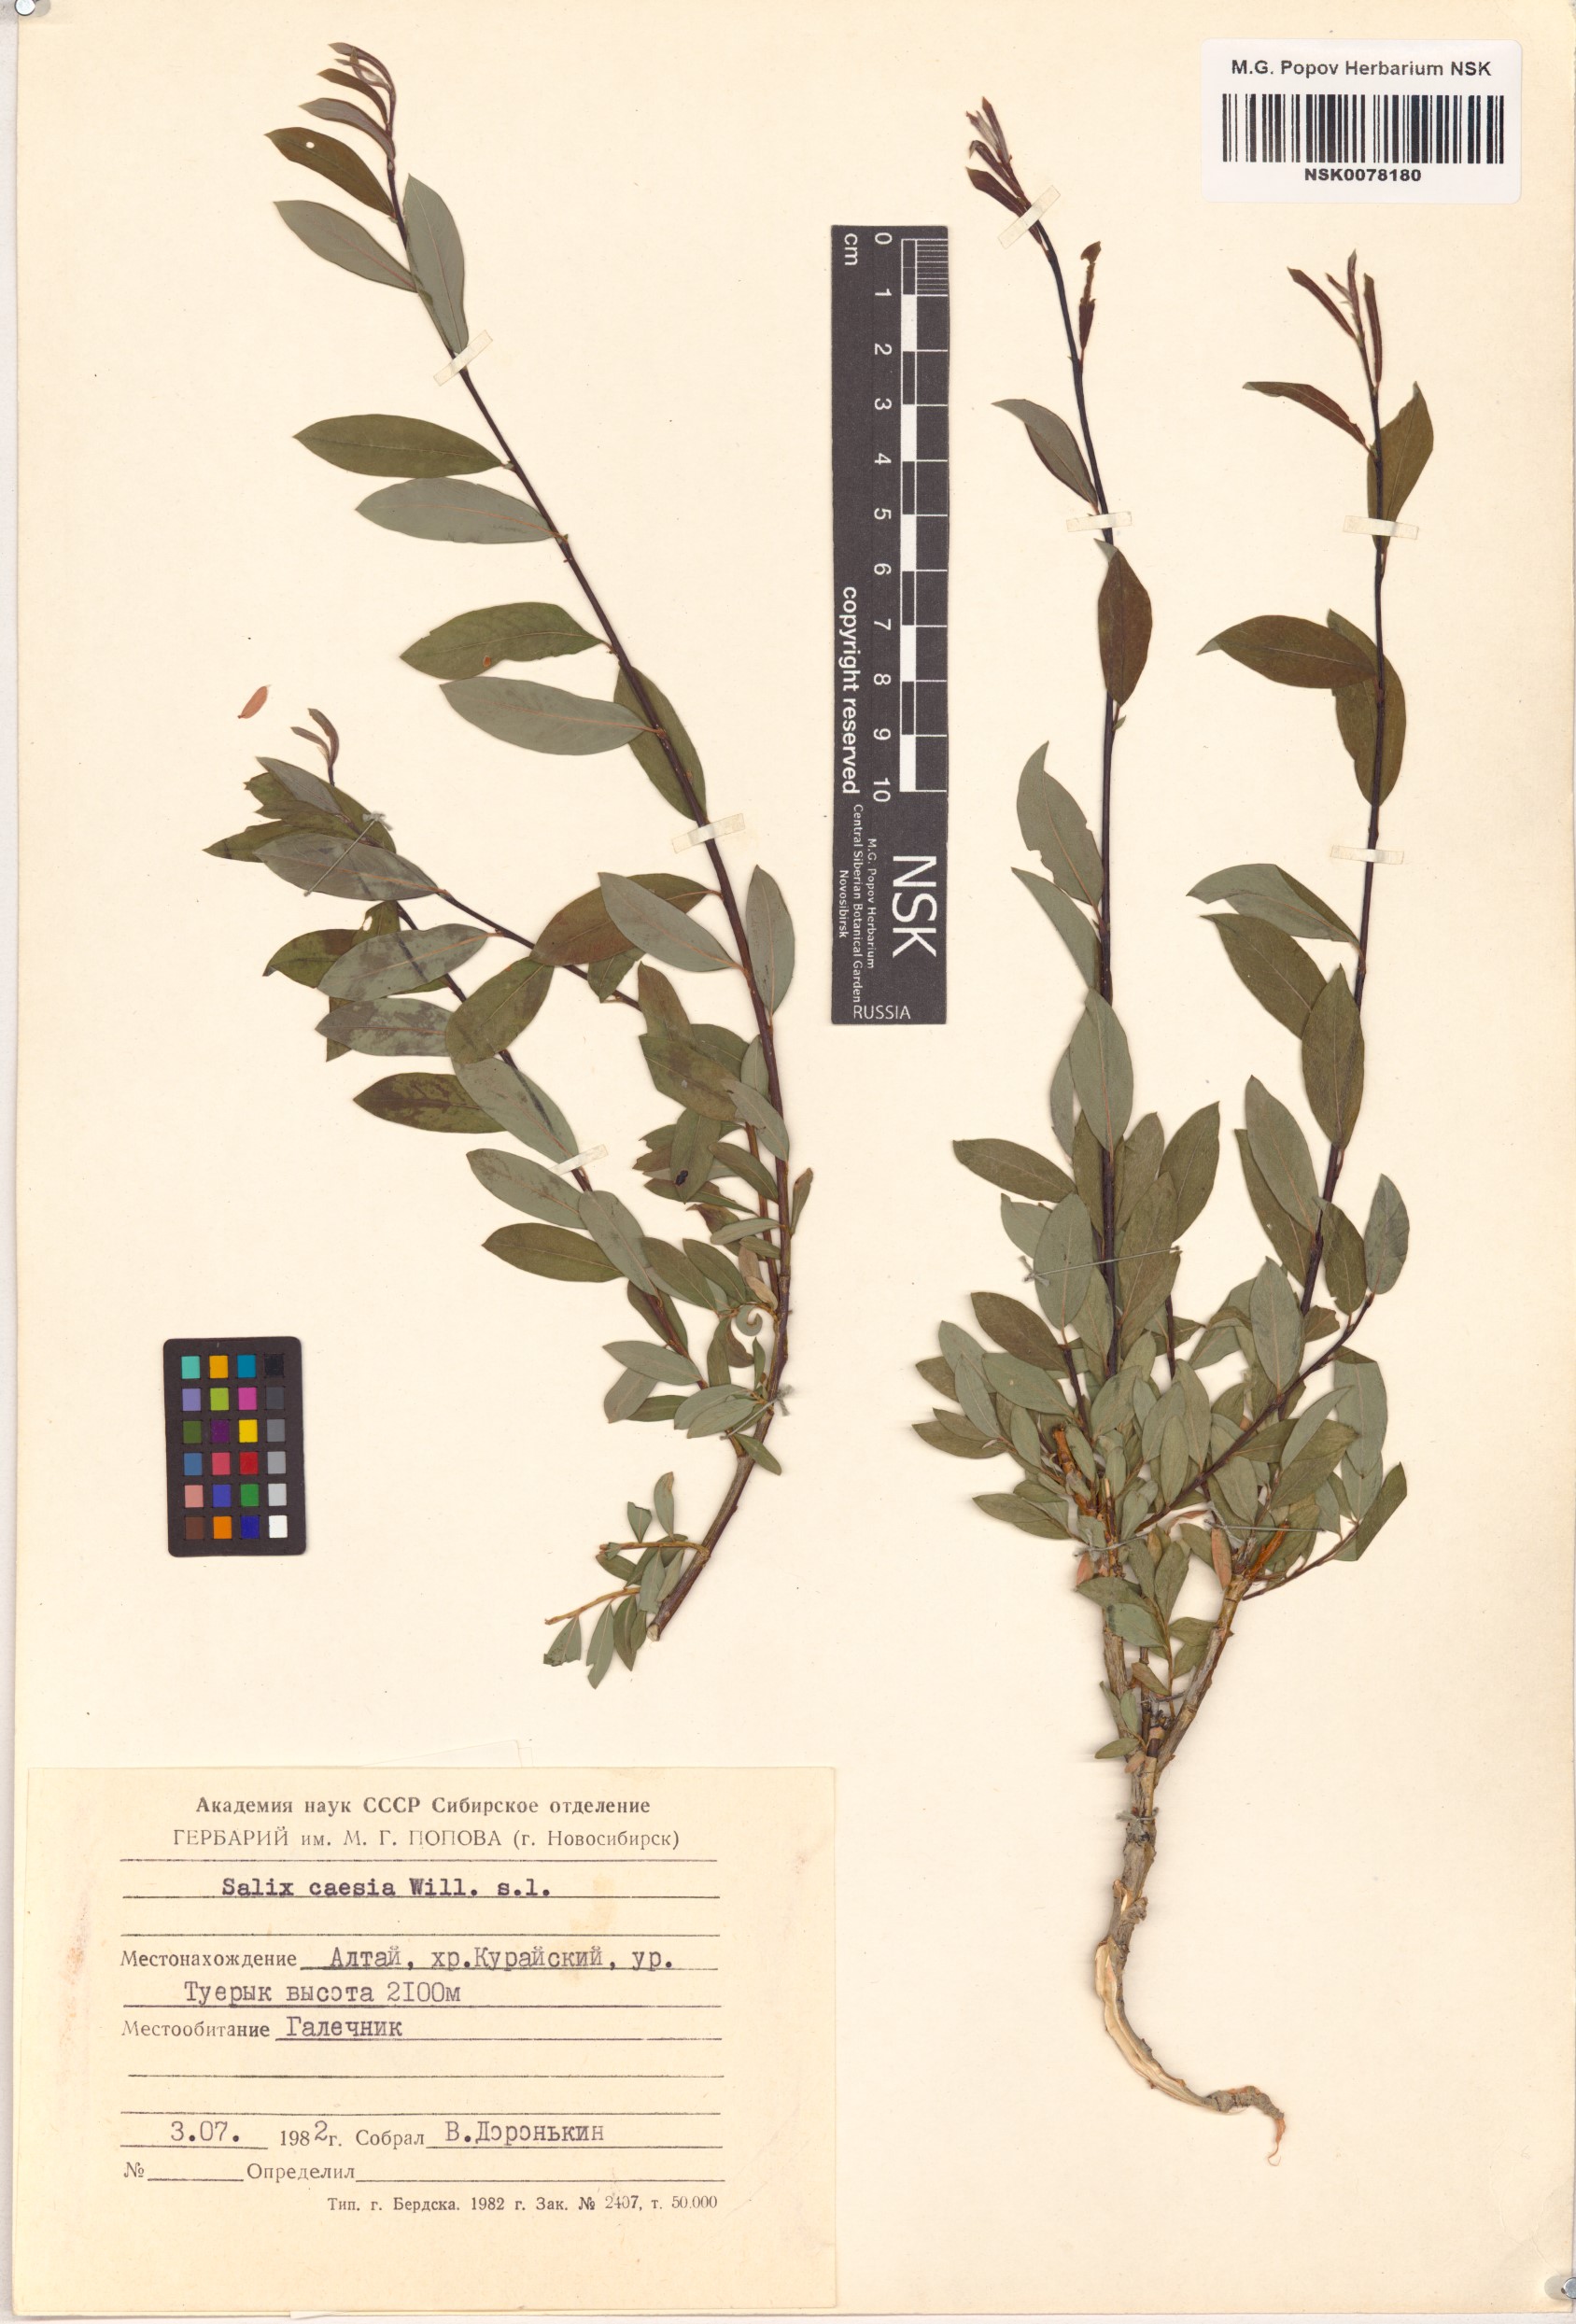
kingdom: Plantae
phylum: Tracheophyta
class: Magnoliopsida
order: Malpighiales
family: Salicaceae
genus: Salix
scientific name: Salix caesia
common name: Blue willow
